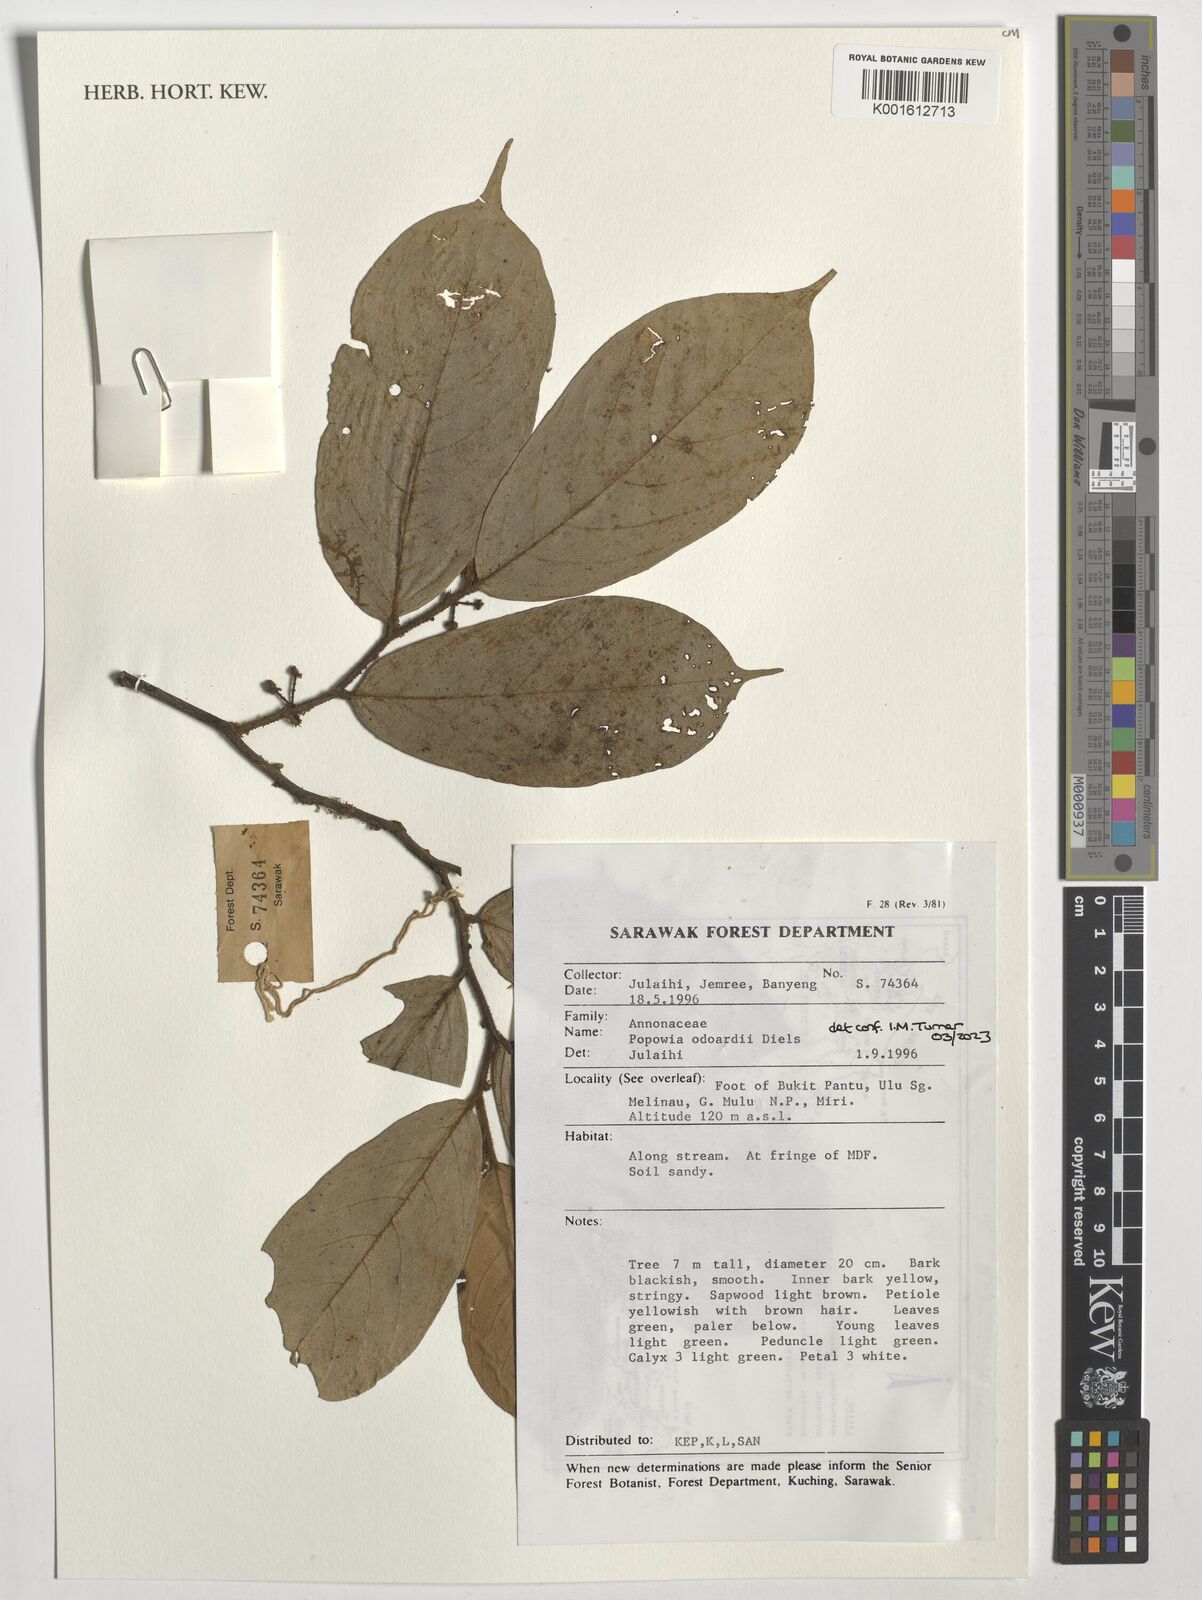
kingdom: Plantae
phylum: Tracheophyta
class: Magnoliopsida
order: Magnoliales
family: Annonaceae
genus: Popowia
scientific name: Popowia odoardi
